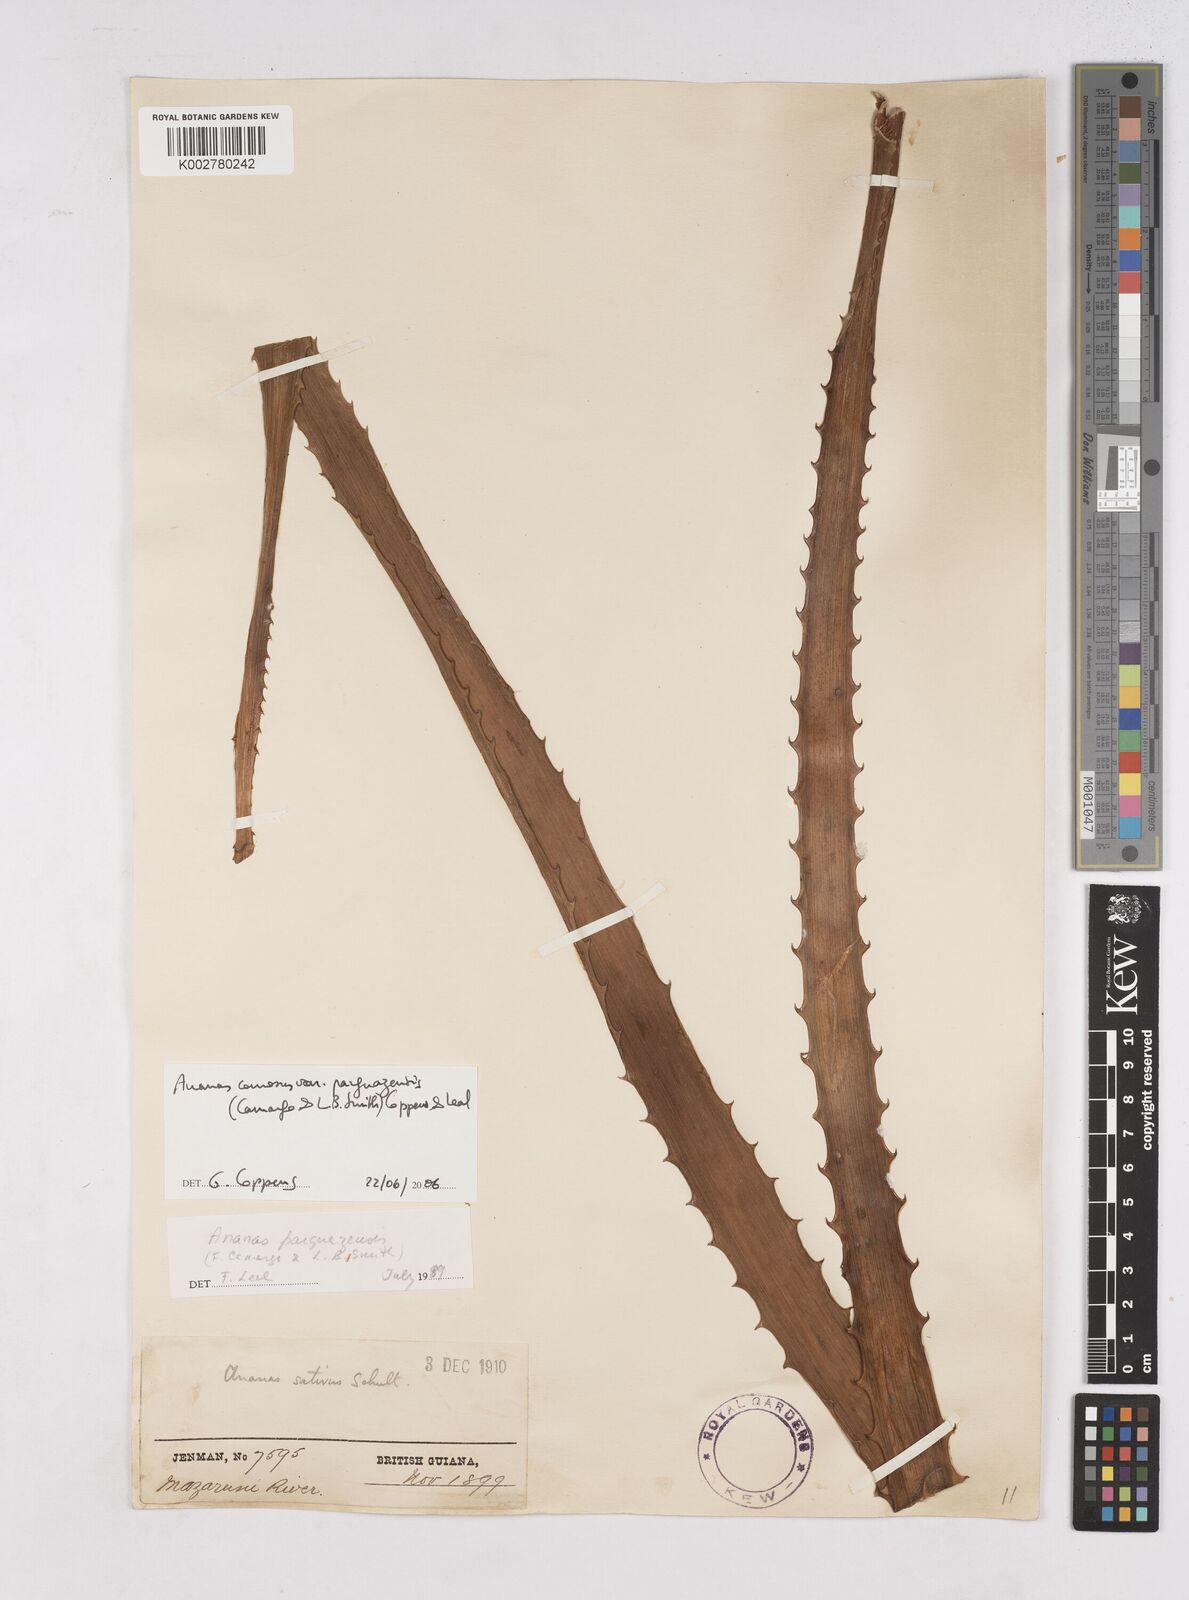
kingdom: Plantae
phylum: Tracheophyta
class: Liliopsida
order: Poales
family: Bromeliaceae
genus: Ananas
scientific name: Ananas comosus
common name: Pineapple
